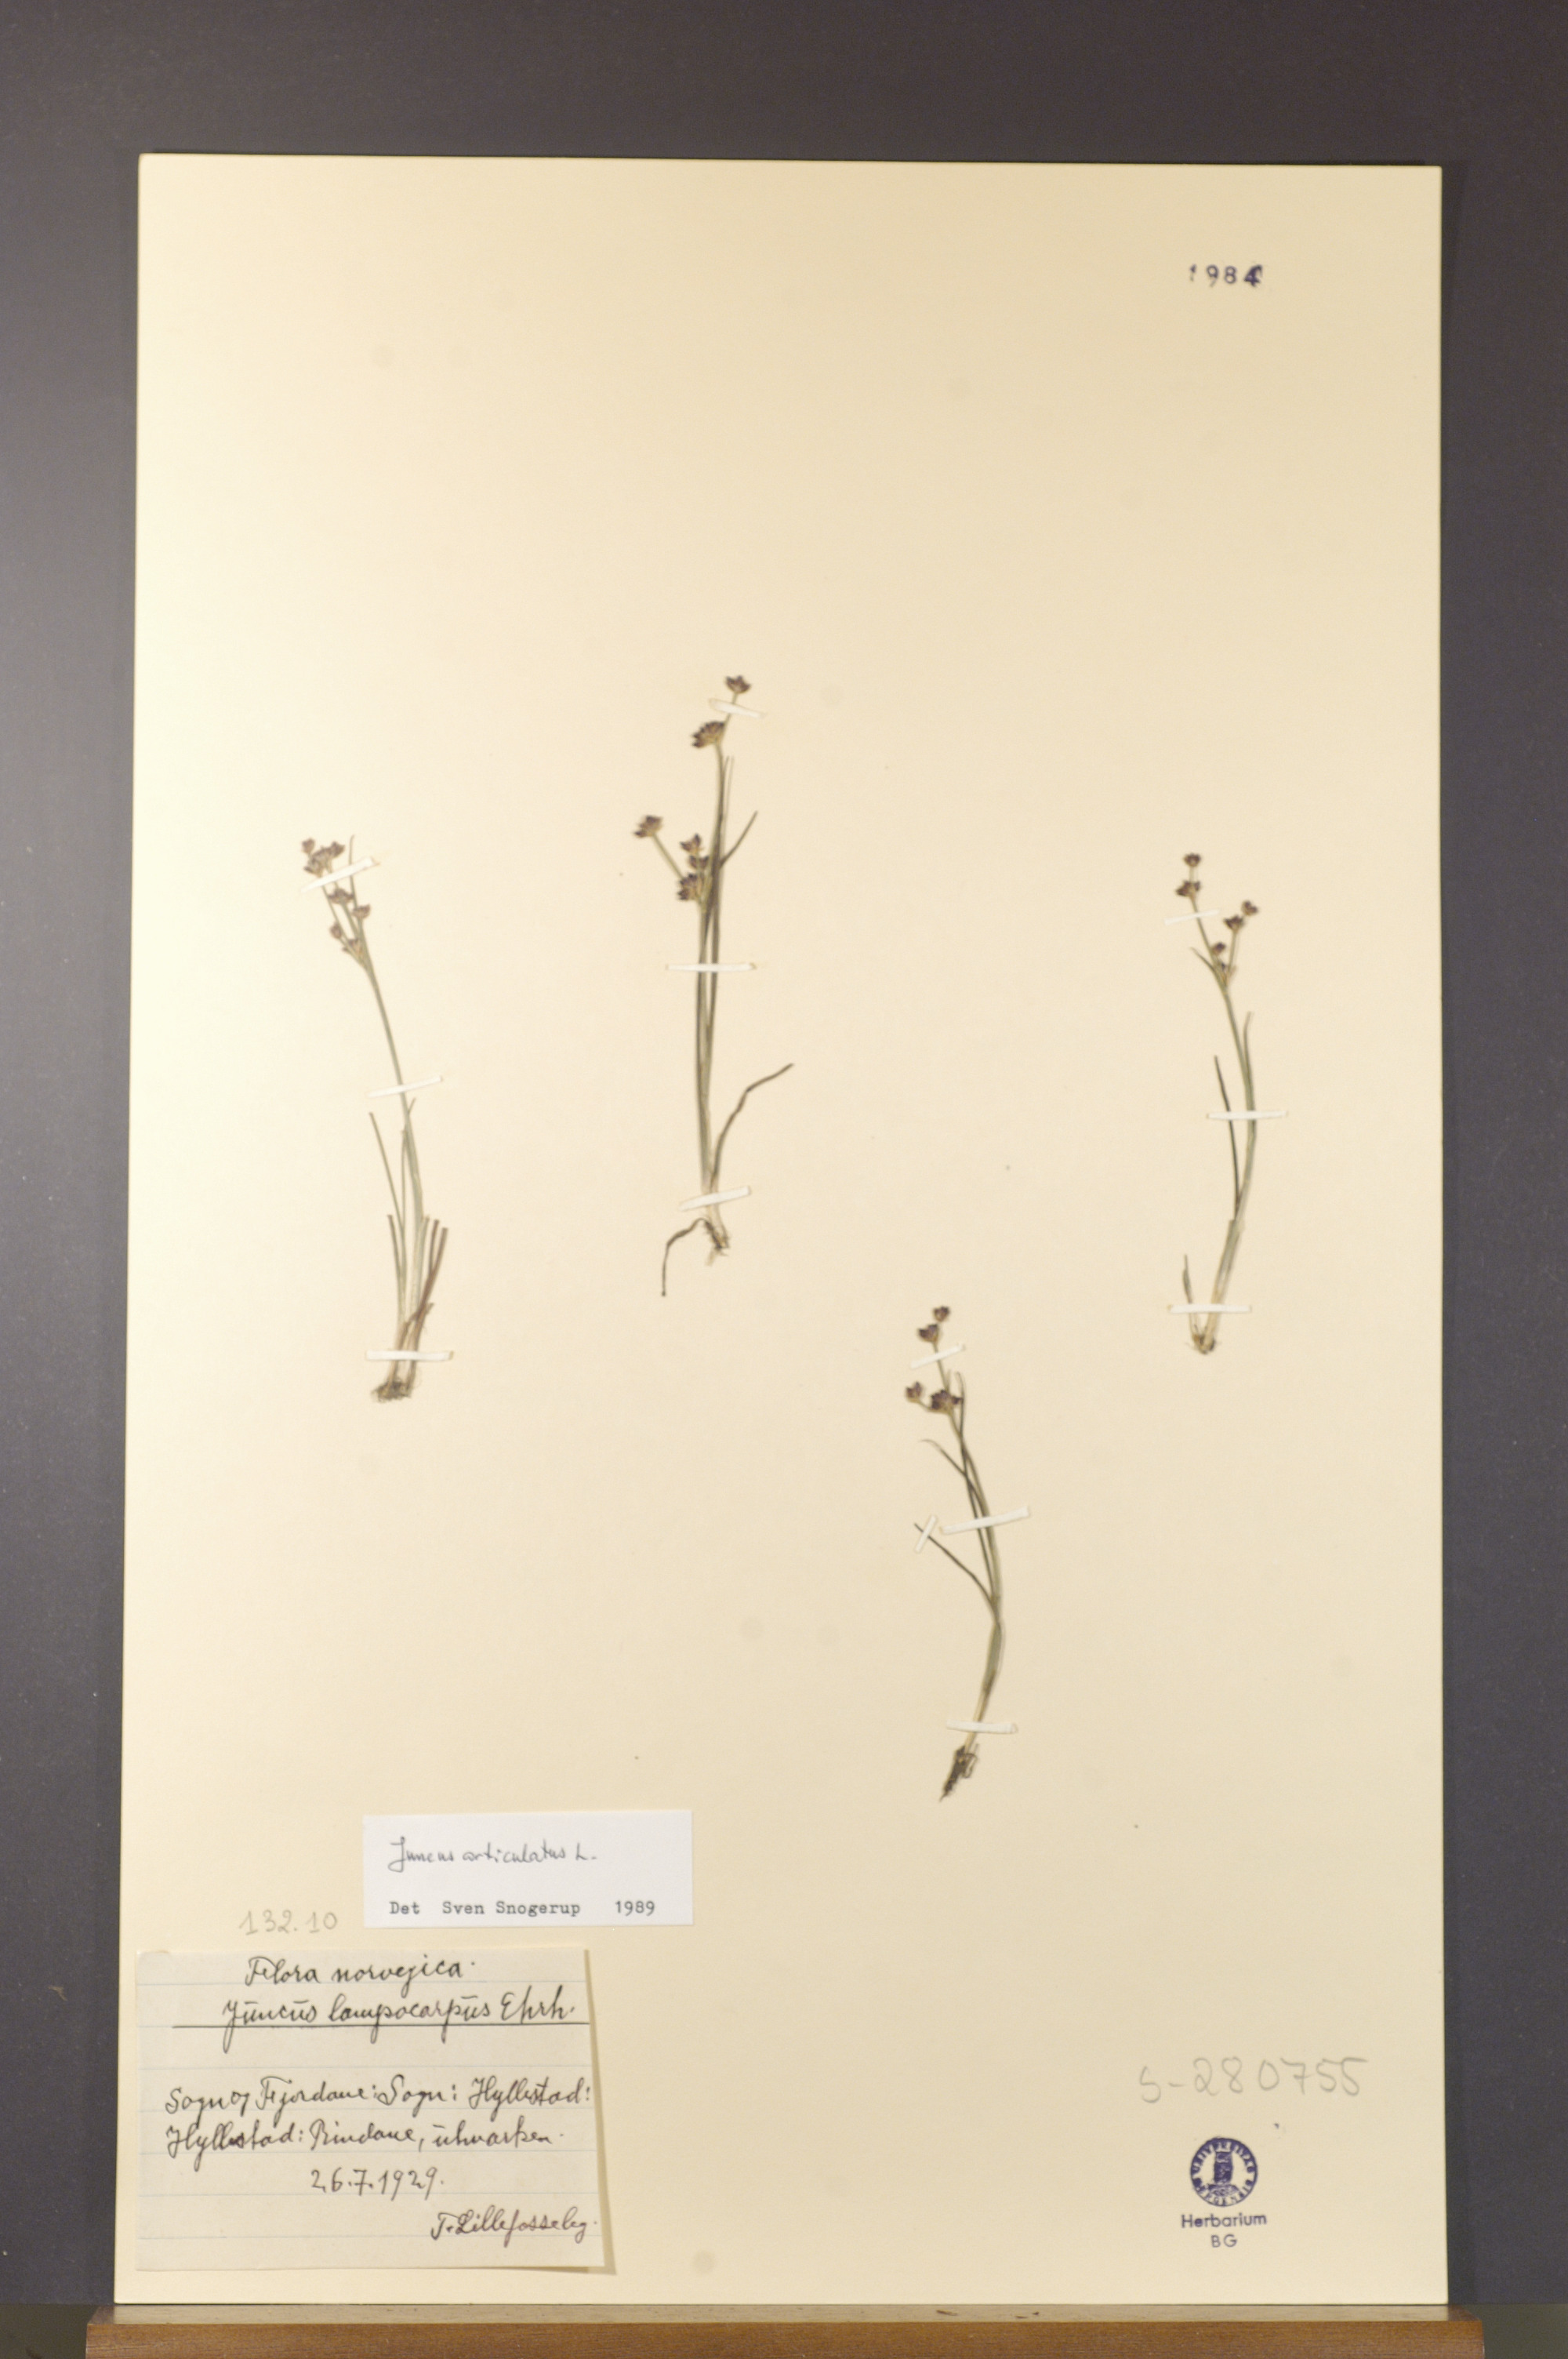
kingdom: Plantae
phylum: Tracheophyta
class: Liliopsida
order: Poales
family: Juncaceae
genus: Juncus
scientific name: Juncus articulatus
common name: Jointed rush
